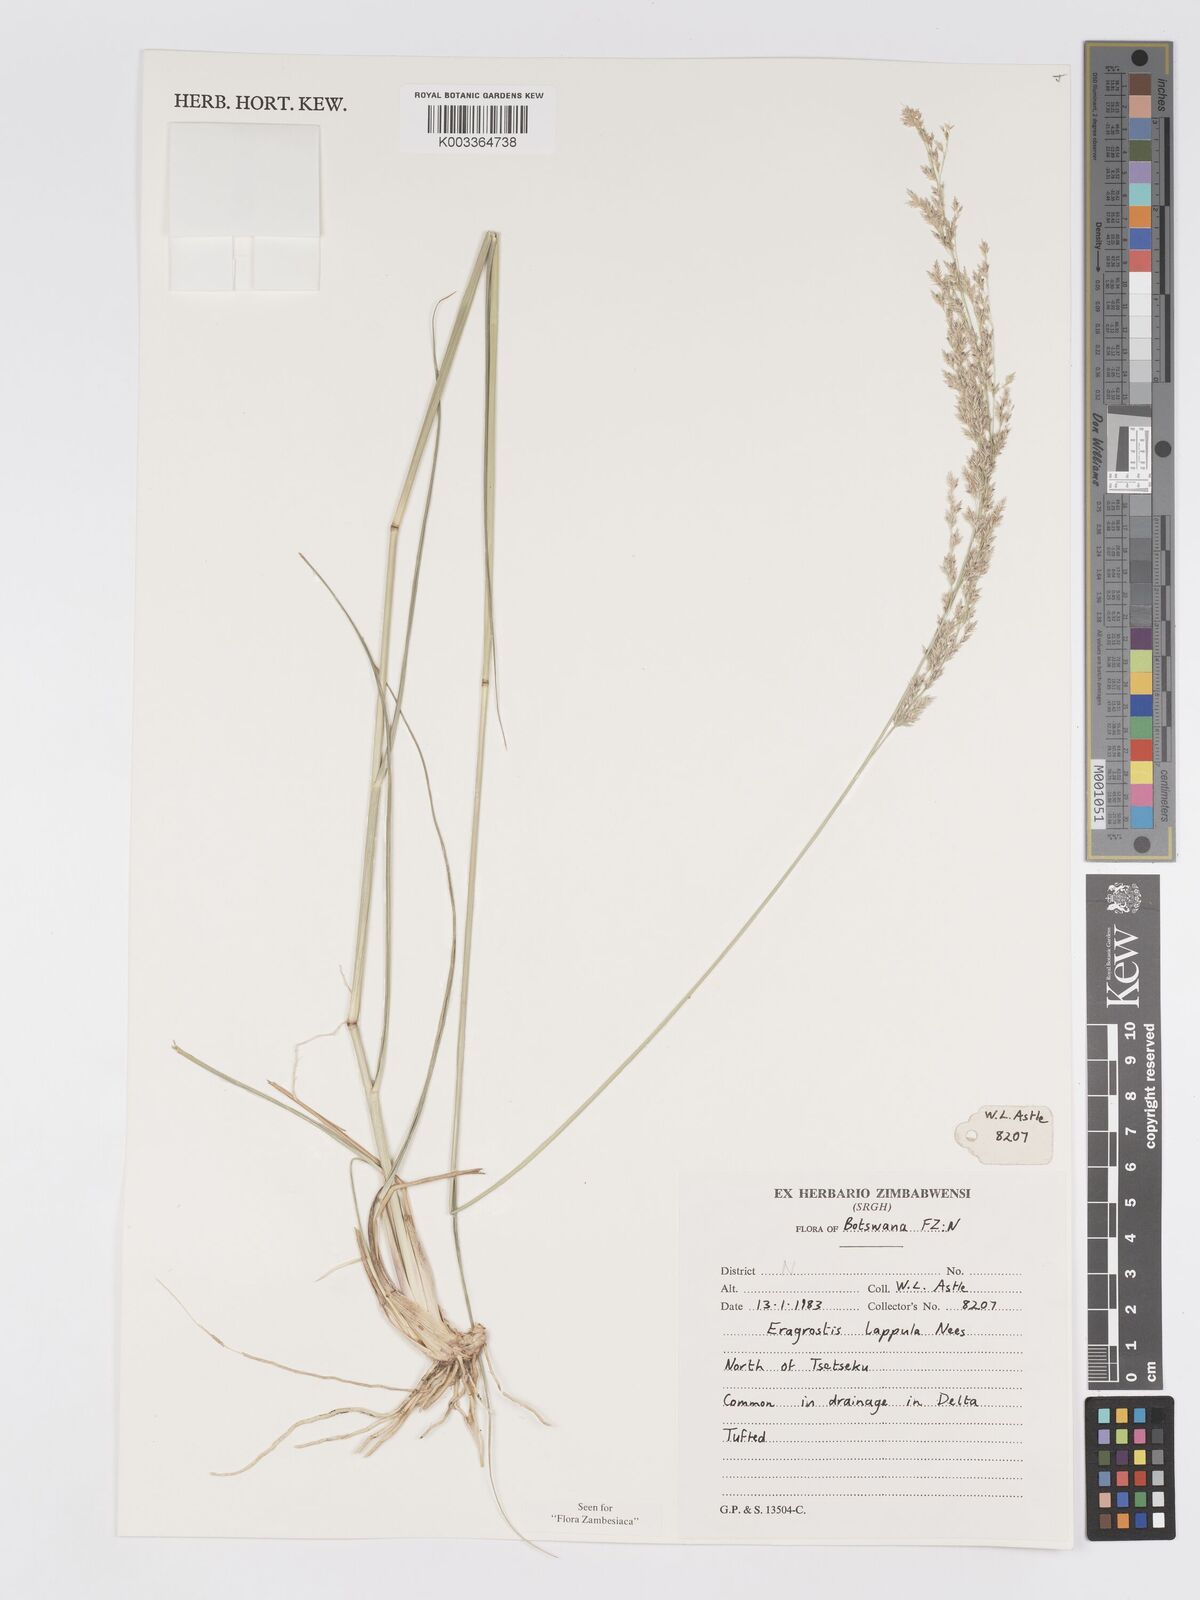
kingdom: Plantae
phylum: Tracheophyta
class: Liliopsida
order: Poales
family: Poaceae
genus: Eragrostis
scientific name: Eragrostis lappula
